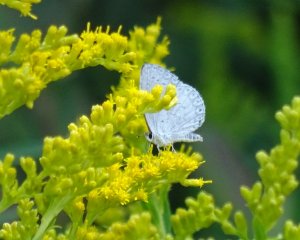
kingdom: Animalia
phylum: Arthropoda
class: Insecta
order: Lepidoptera
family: Lycaenidae
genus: Cyaniris
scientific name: Cyaniris neglecta
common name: Summer Azure
